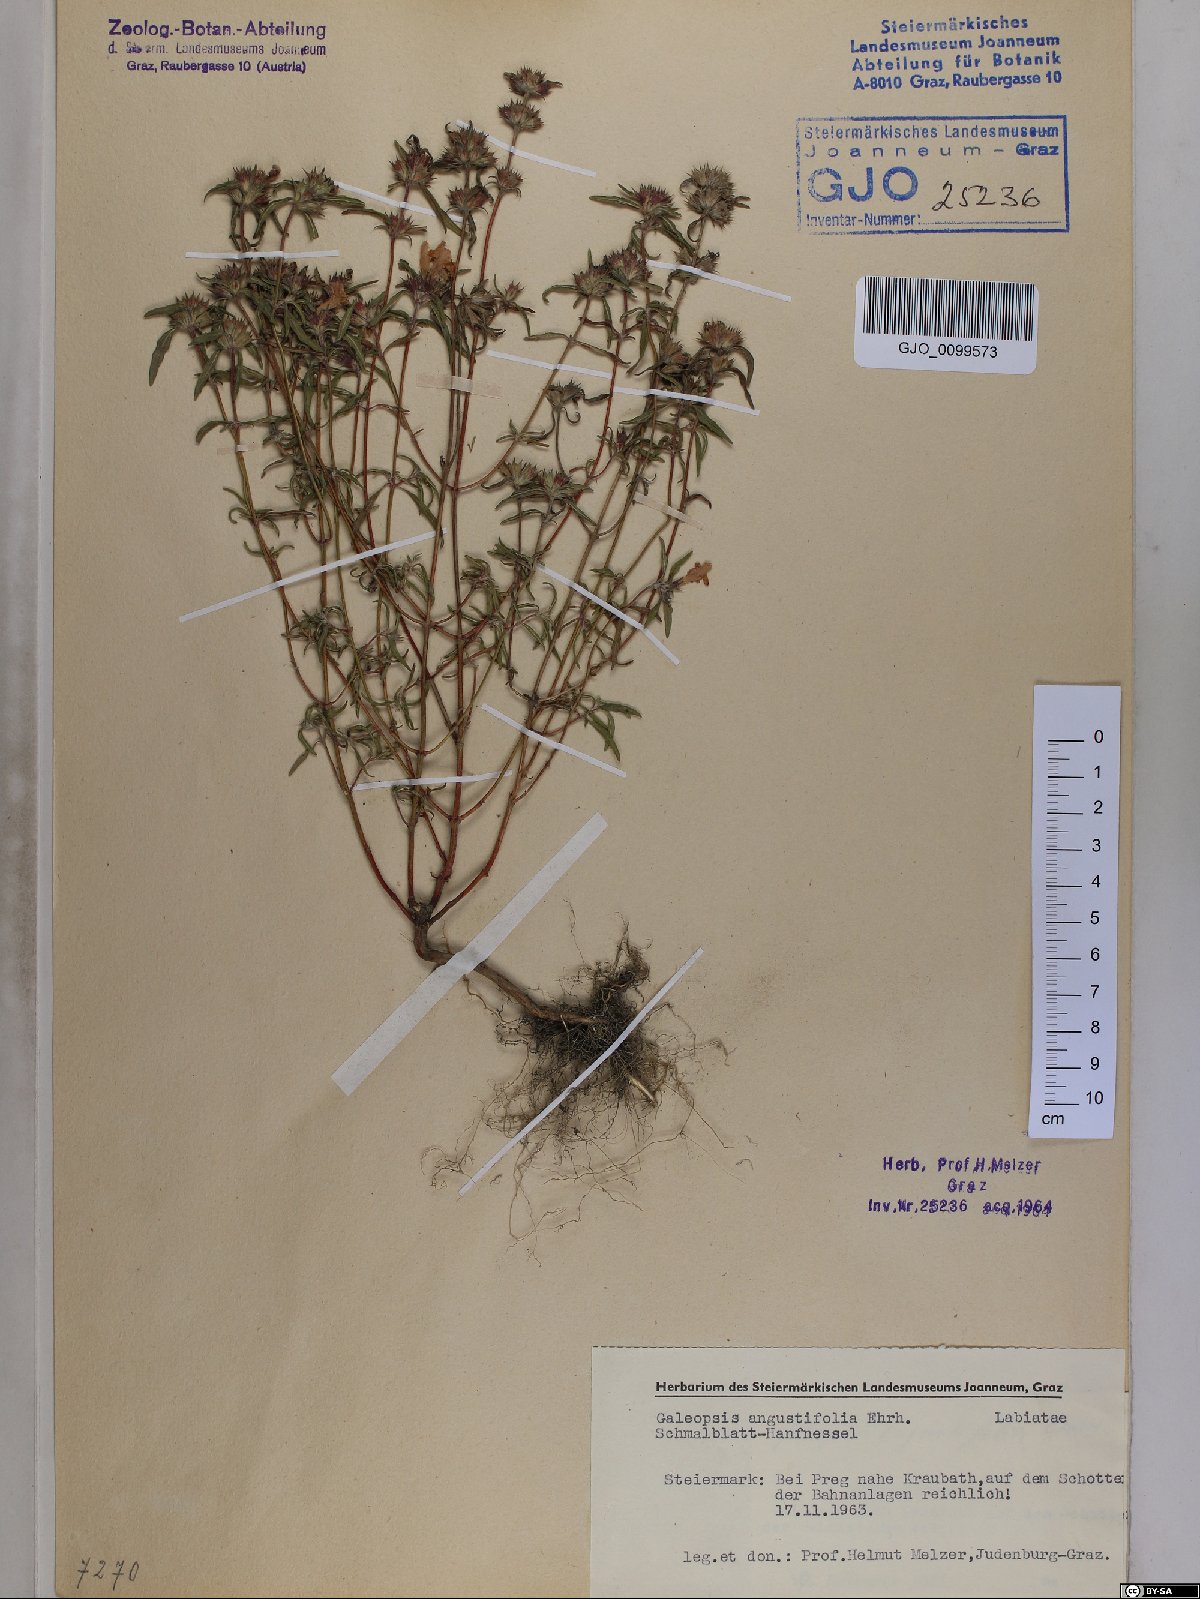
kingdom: Plantae
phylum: Tracheophyta
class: Magnoliopsida
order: Lamiales
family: Lamiaceae
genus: Galeopsis
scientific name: Galeopsis angustifolia
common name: Red hemp-nettle
